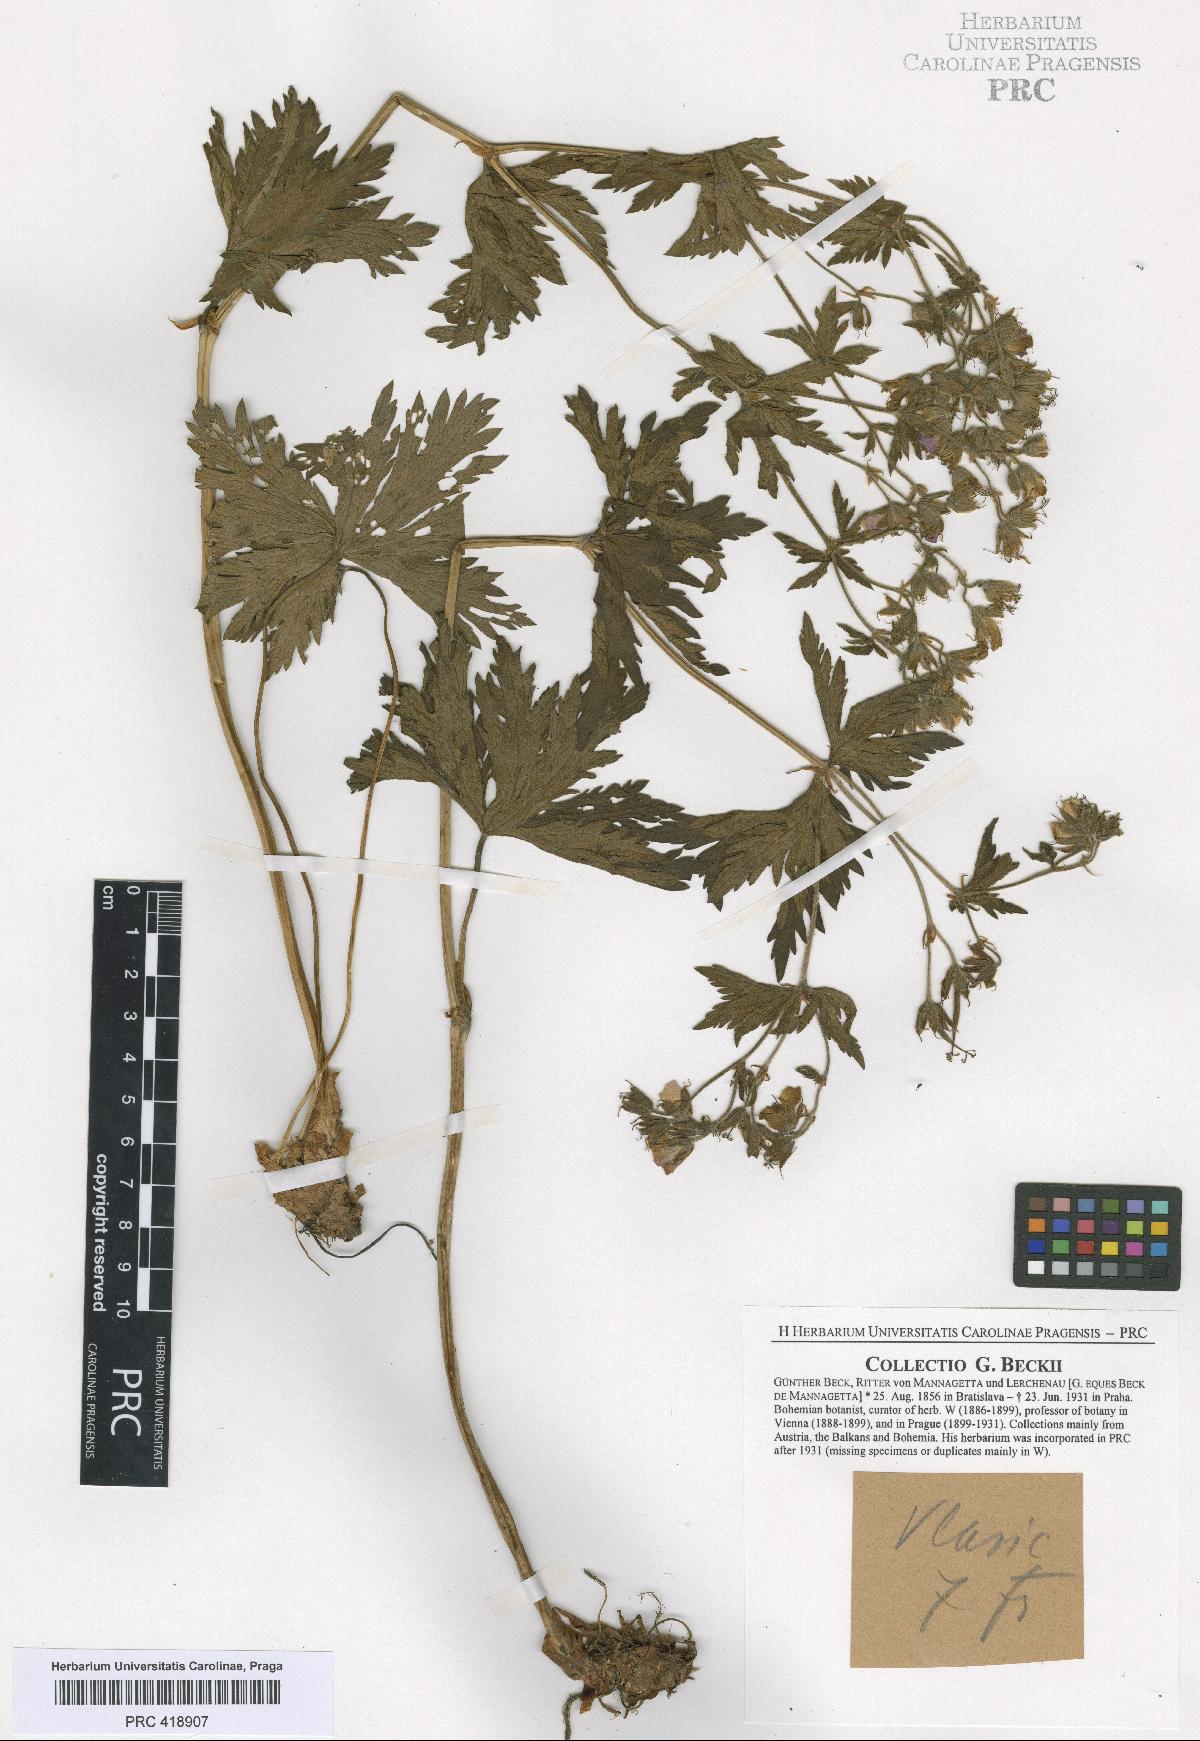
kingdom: Plantae
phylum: Tracheophyta
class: Magnoliopsida
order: Geraniales
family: Geraniaceae
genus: Geranium
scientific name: Geranium sylvaticum
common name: Wood crane's-bill
